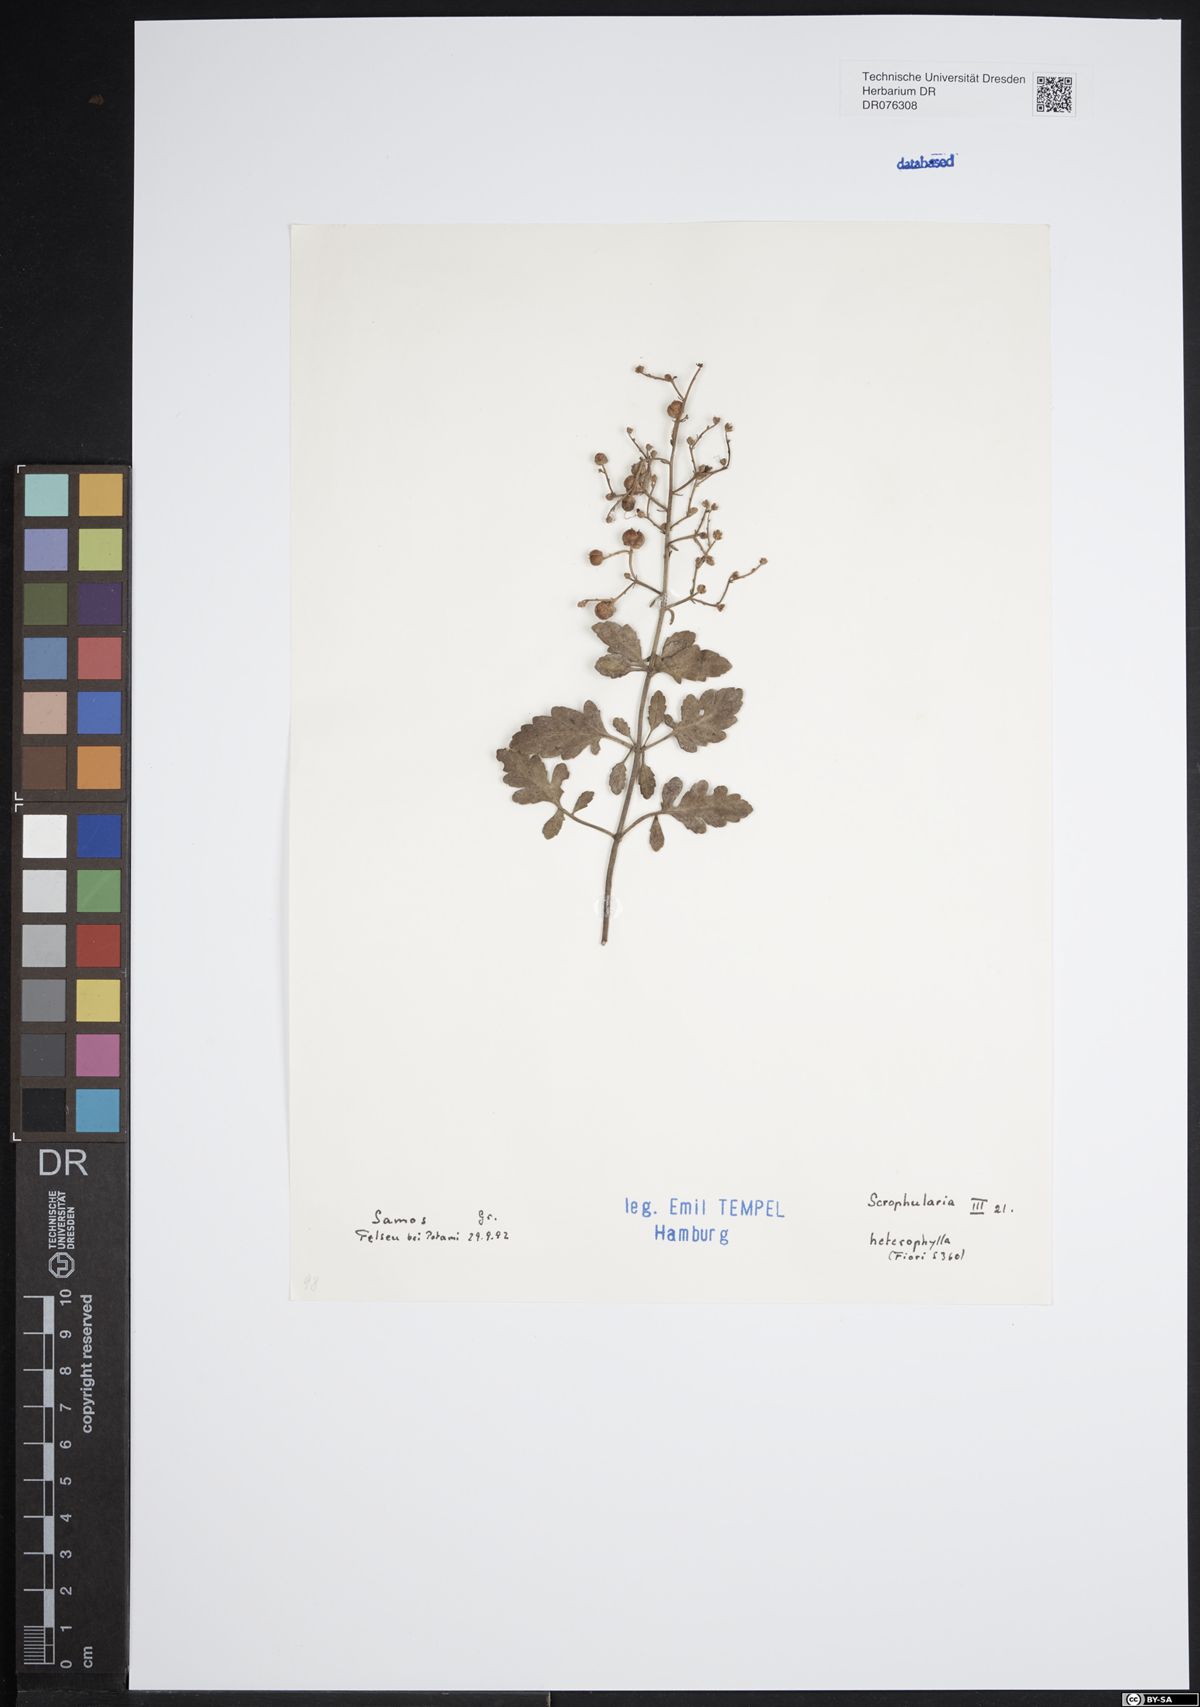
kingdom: Plantae
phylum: Tracheophyta
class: Magnoliopsida
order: Lamiales
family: Scrophulariaceae
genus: Scrophularia
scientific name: Scrophularia heterophylla
